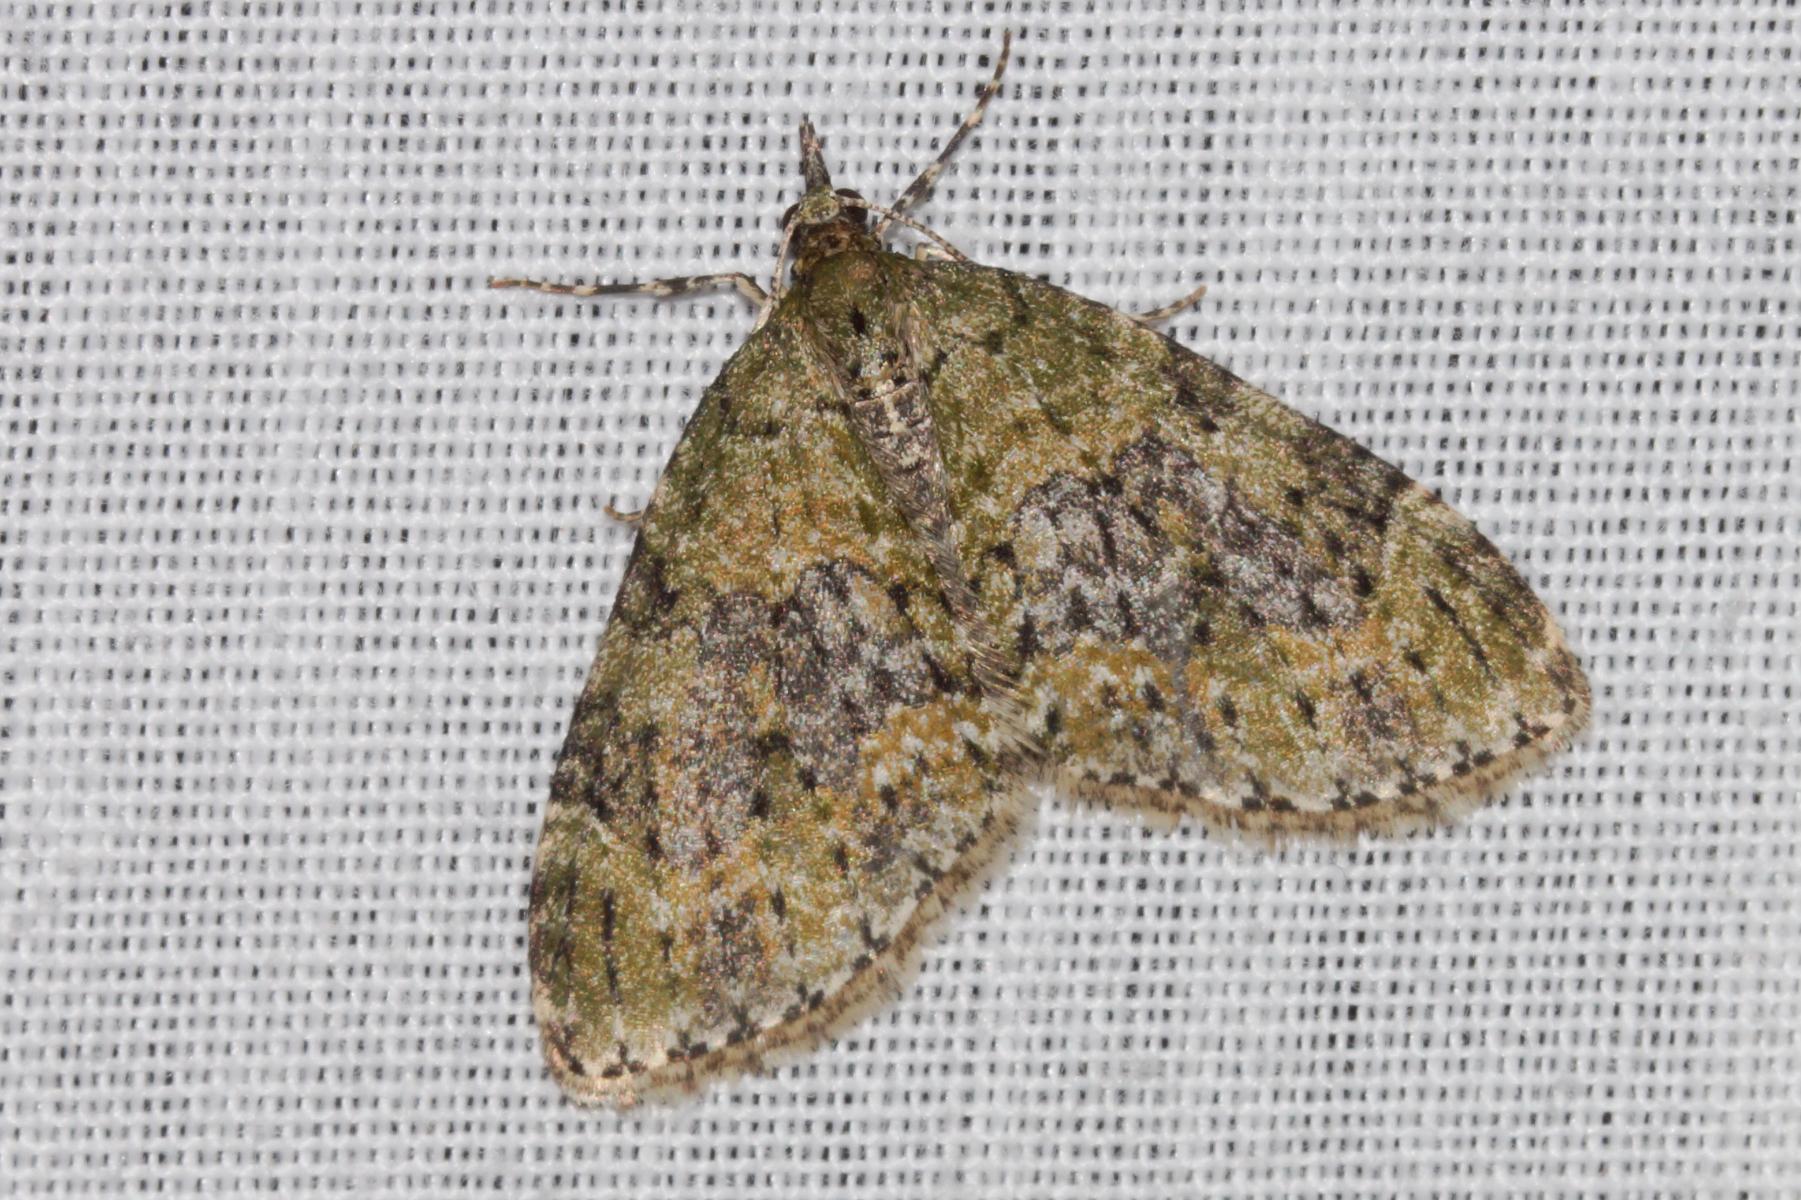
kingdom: Animalia
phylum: Arthropoda
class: Insecta
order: Lepidoptera
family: Geometridae
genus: Acasis
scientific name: Acasis viretata
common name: Tørstetræblomstmåler
